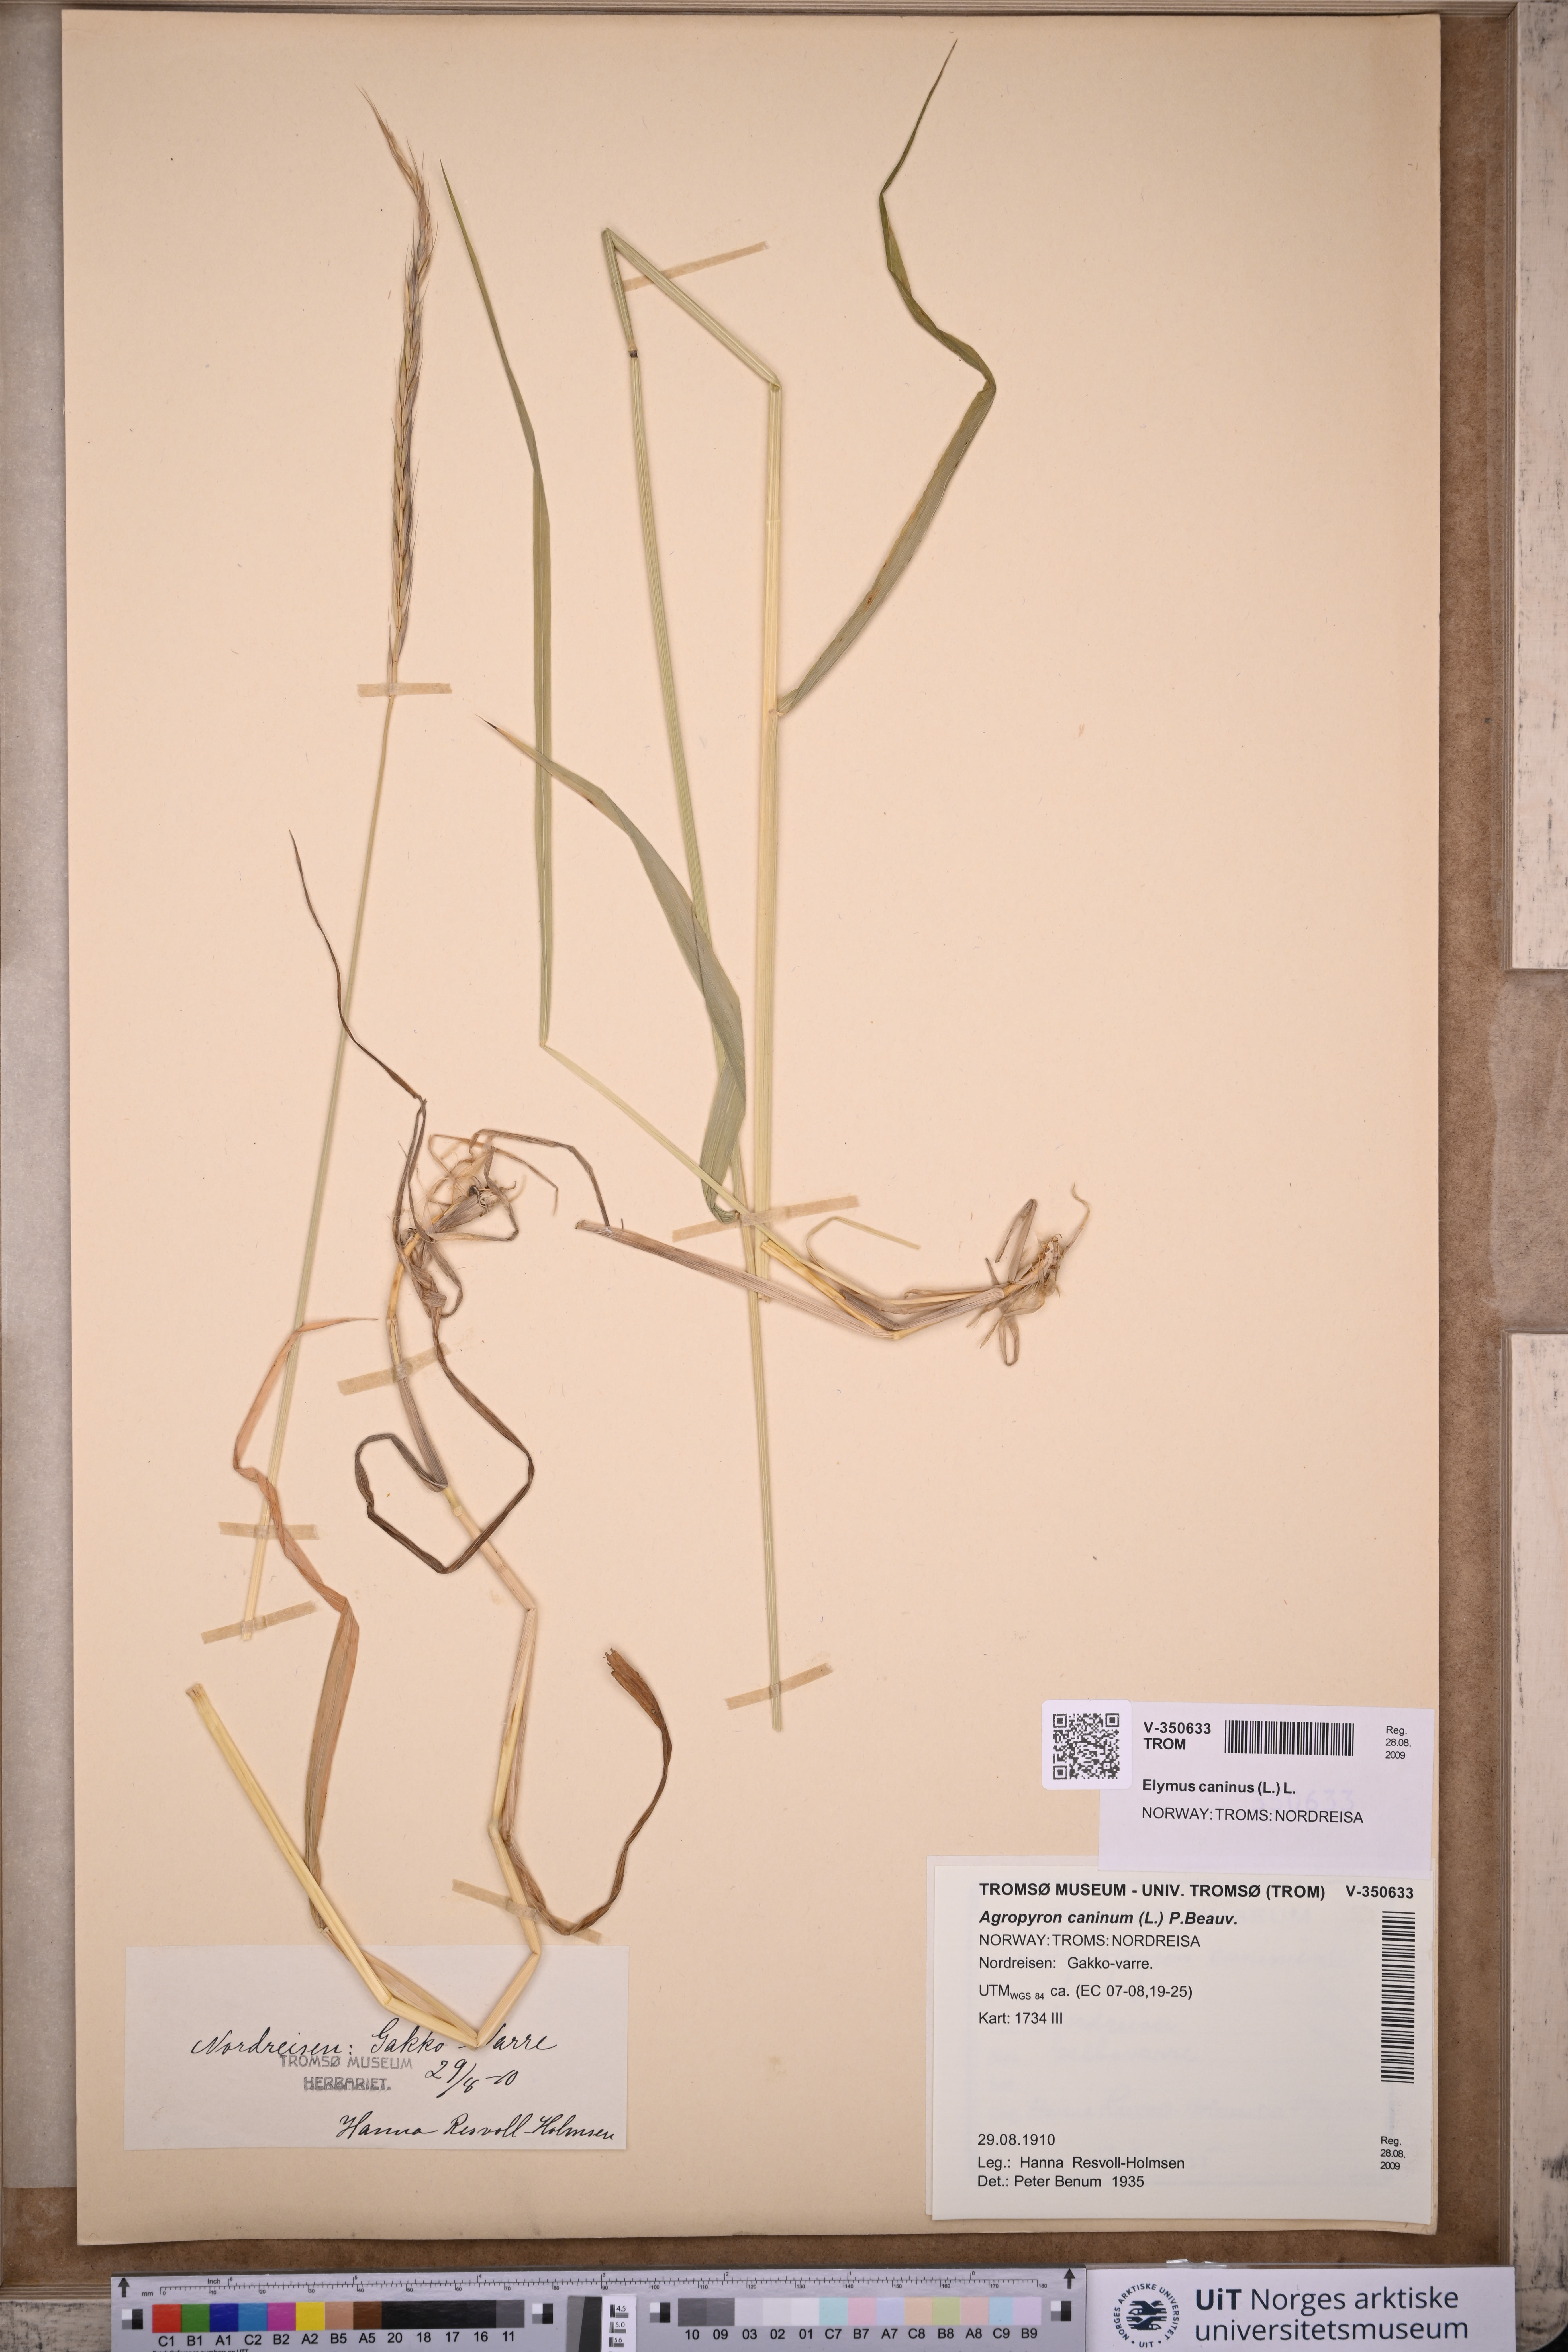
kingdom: Plantae
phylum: Tracheophyta
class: Liliopsida
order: Poales
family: Poaceae
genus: Elymus
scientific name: Elymus caninus
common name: Bearded couch
